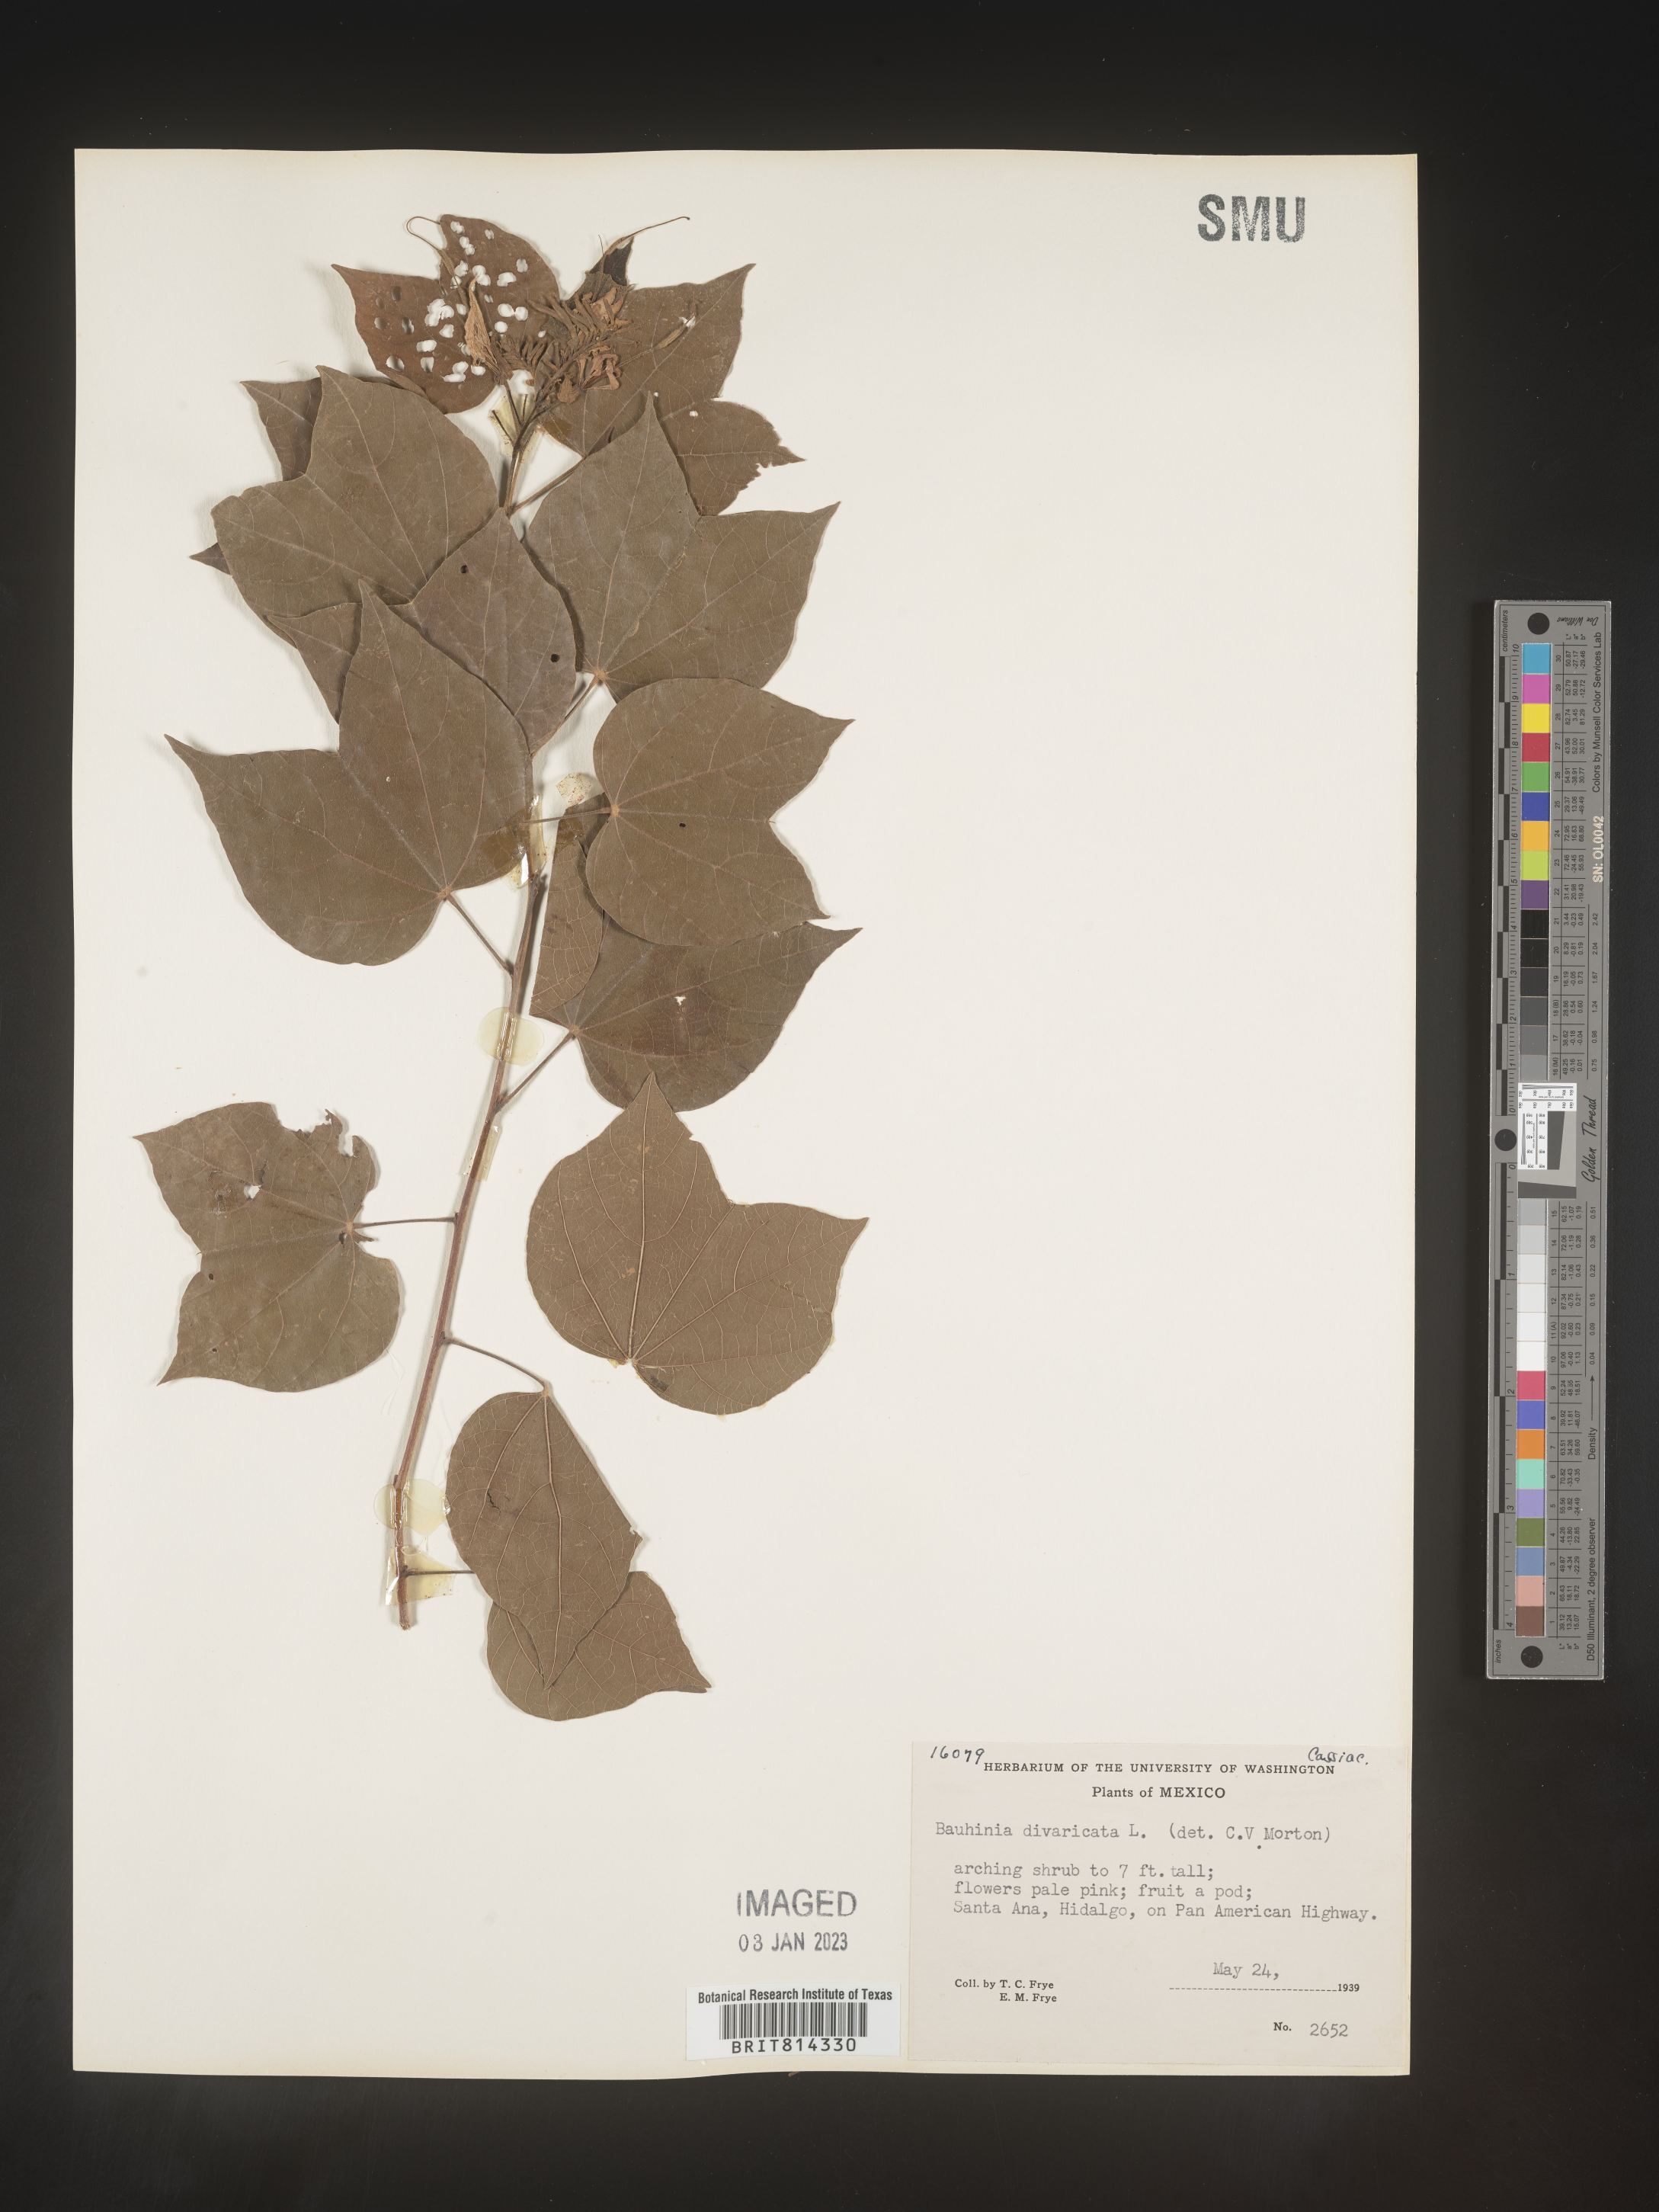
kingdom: Plantae
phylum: Tracheophyta
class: Magnoliopsida
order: Fabales
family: Fabaceae
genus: Bauhinia
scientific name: Bauhinia
